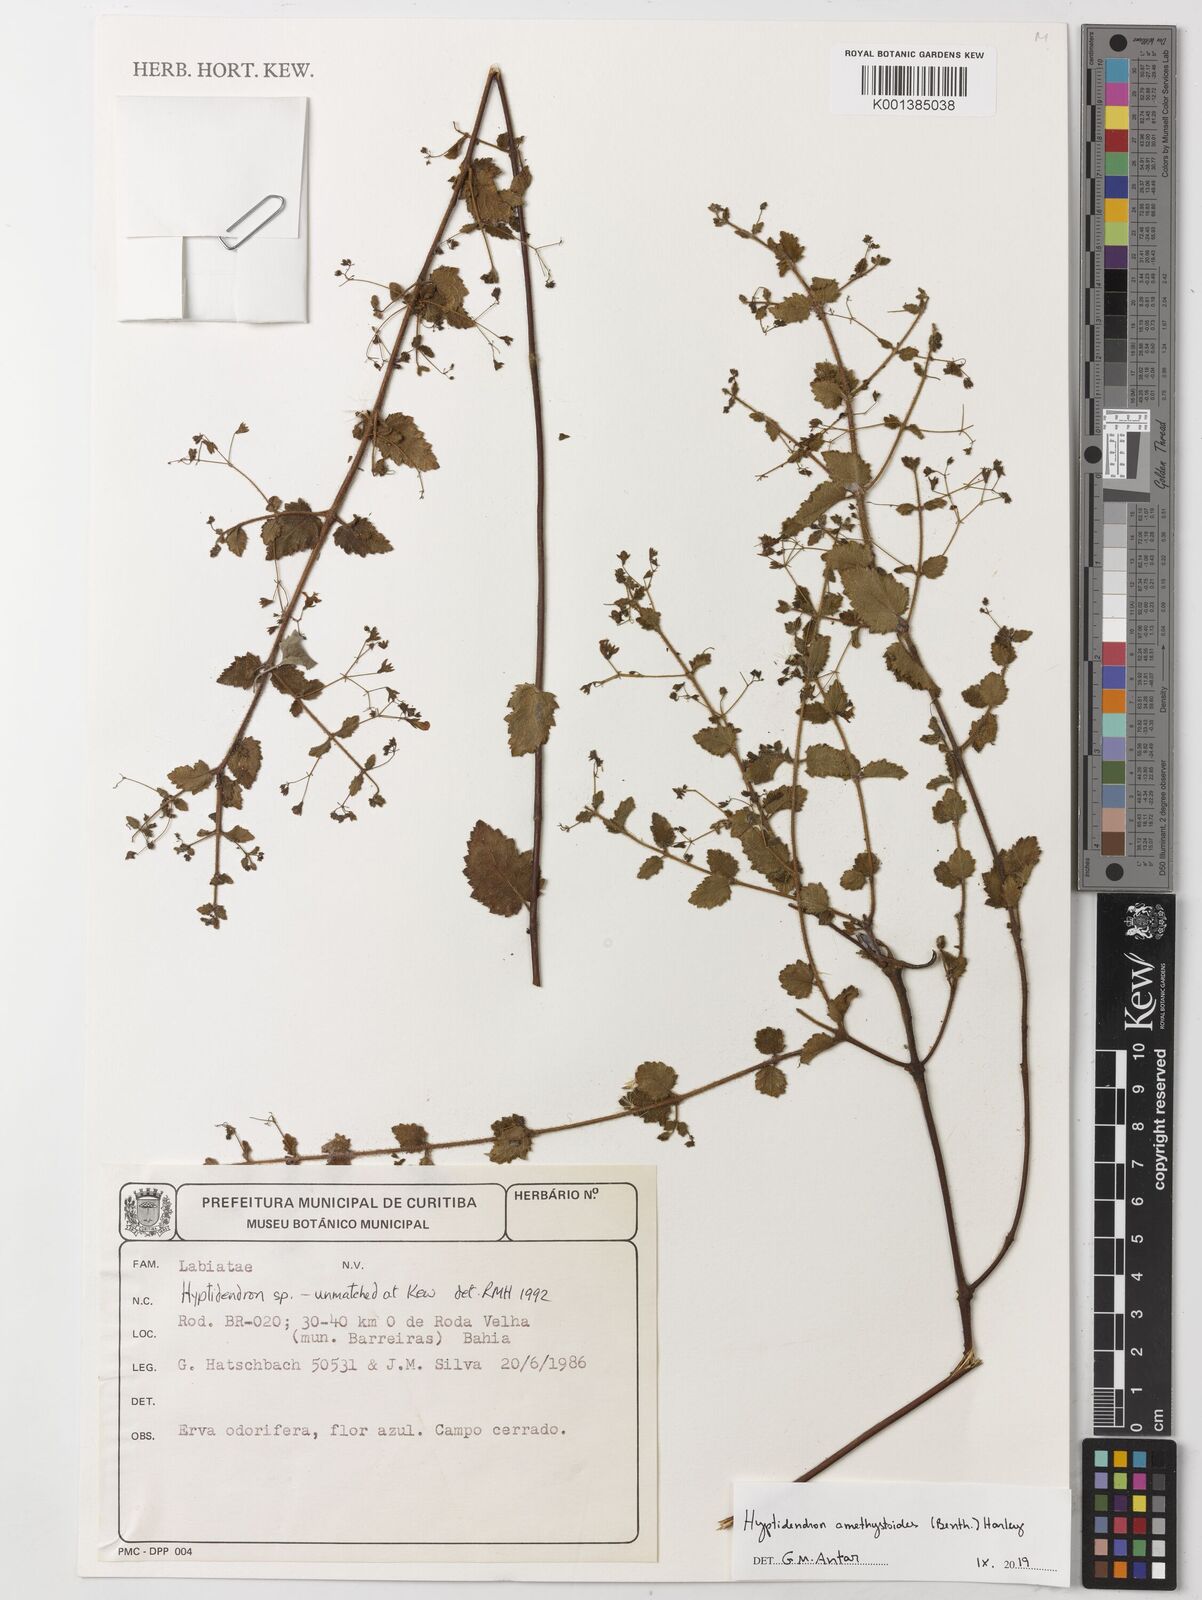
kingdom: Plantae
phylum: Tracheophyta
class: Magnoliopsida
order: Lamiales
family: Lamiaceae
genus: Hyptidendron
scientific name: Hyptidendron amethystoides
